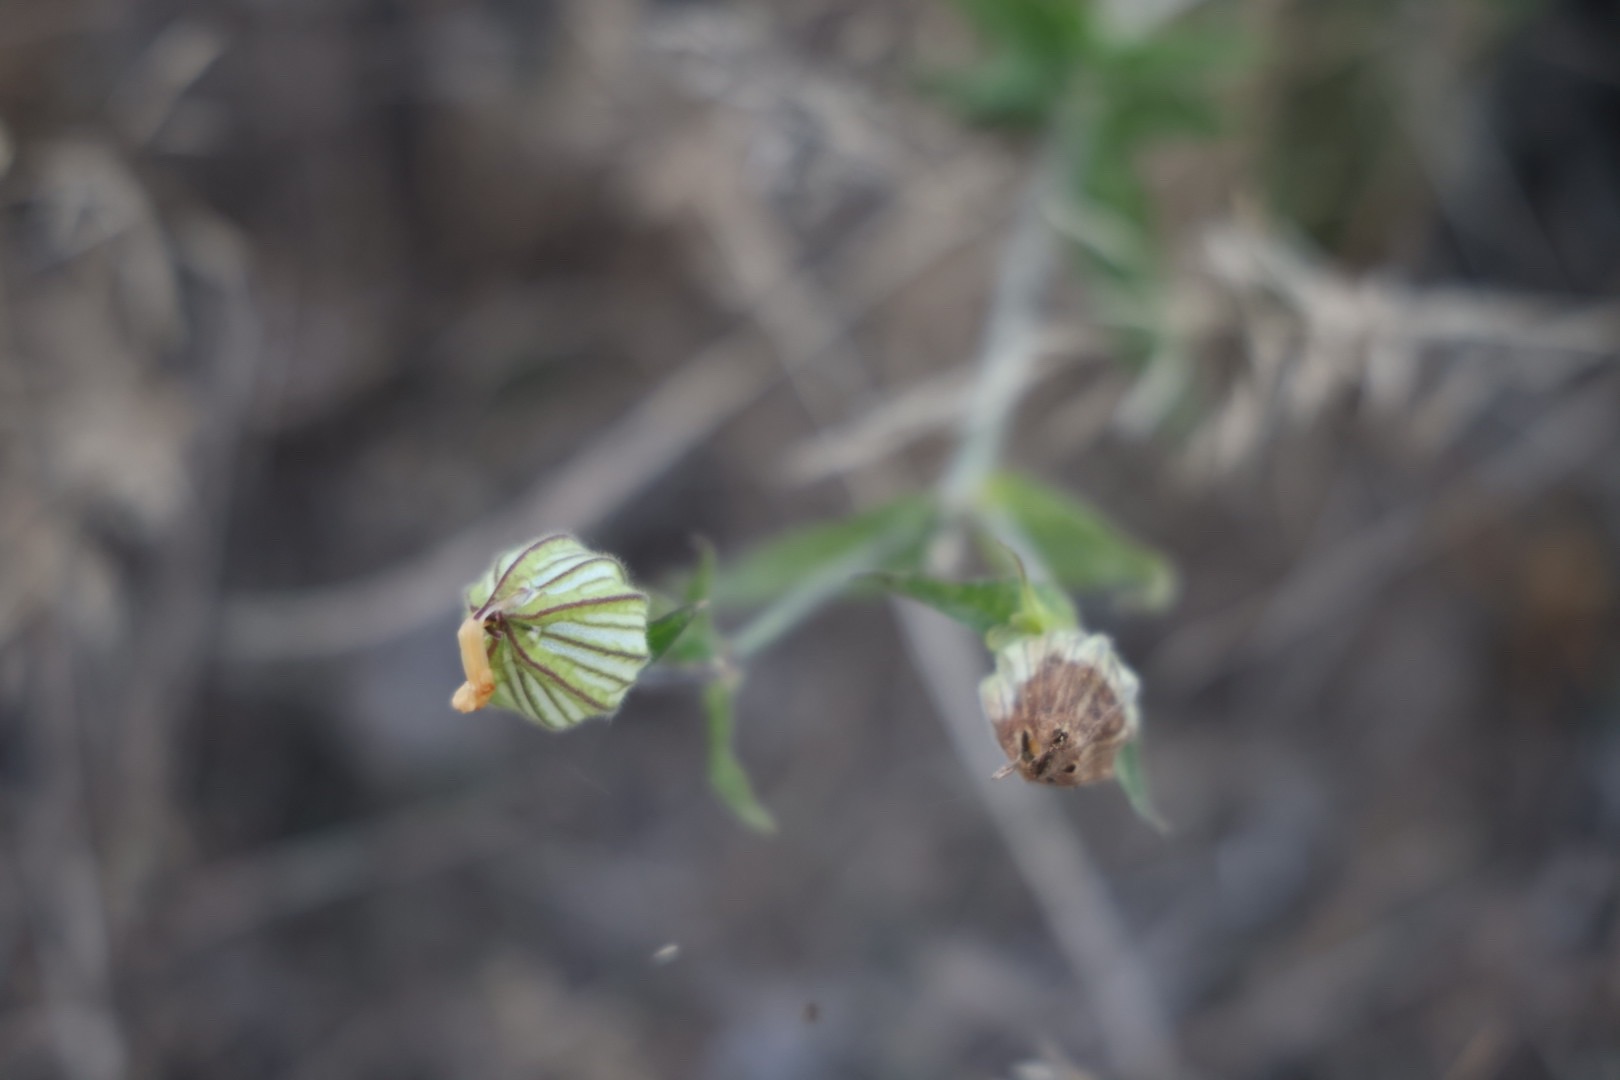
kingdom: Plantae
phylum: Tracheophyta
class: Magnoliopsida
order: Caryophyllales
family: Caryophyllaceae
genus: Silene
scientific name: Silene latifolia
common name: Aftenpragtstjerne
